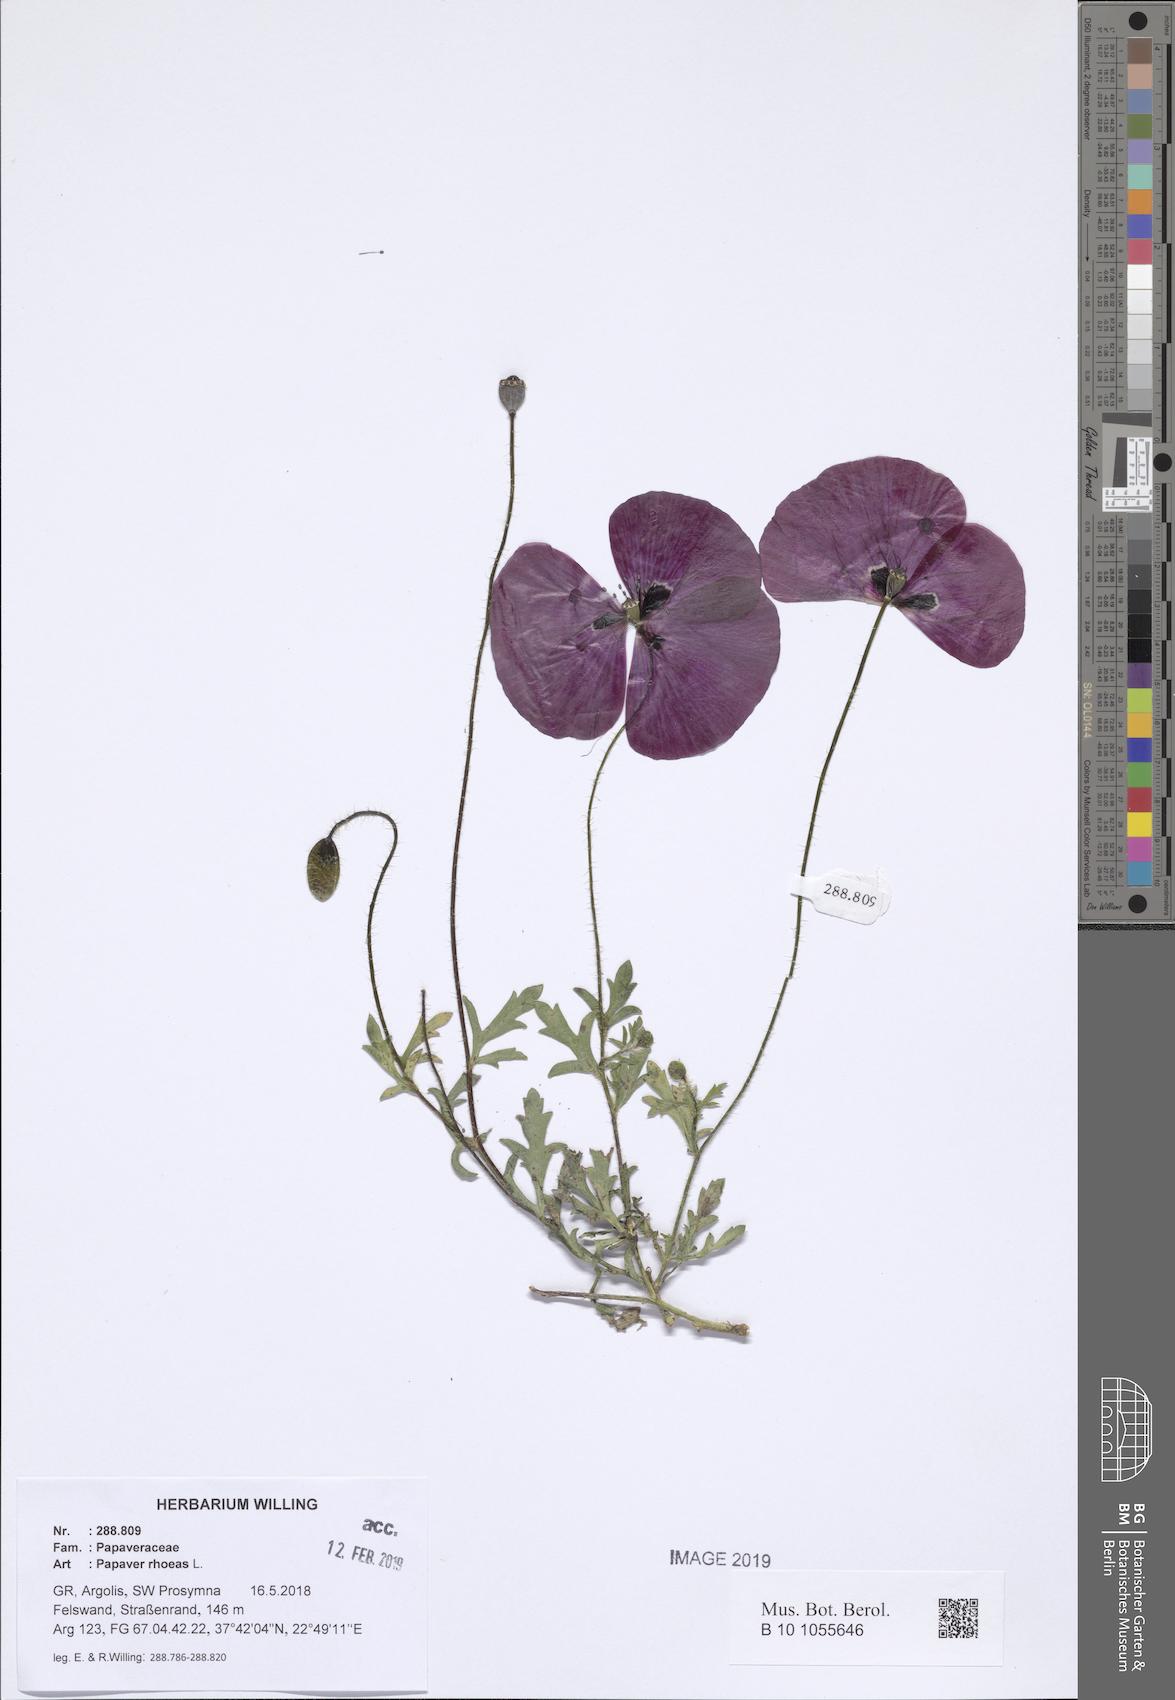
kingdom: Plantae
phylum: Tracheophyta
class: Magnoliopsida
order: Ranunculales
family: Papaveraceae
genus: Papaver
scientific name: Papaver rhoeas
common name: Corn poppy
